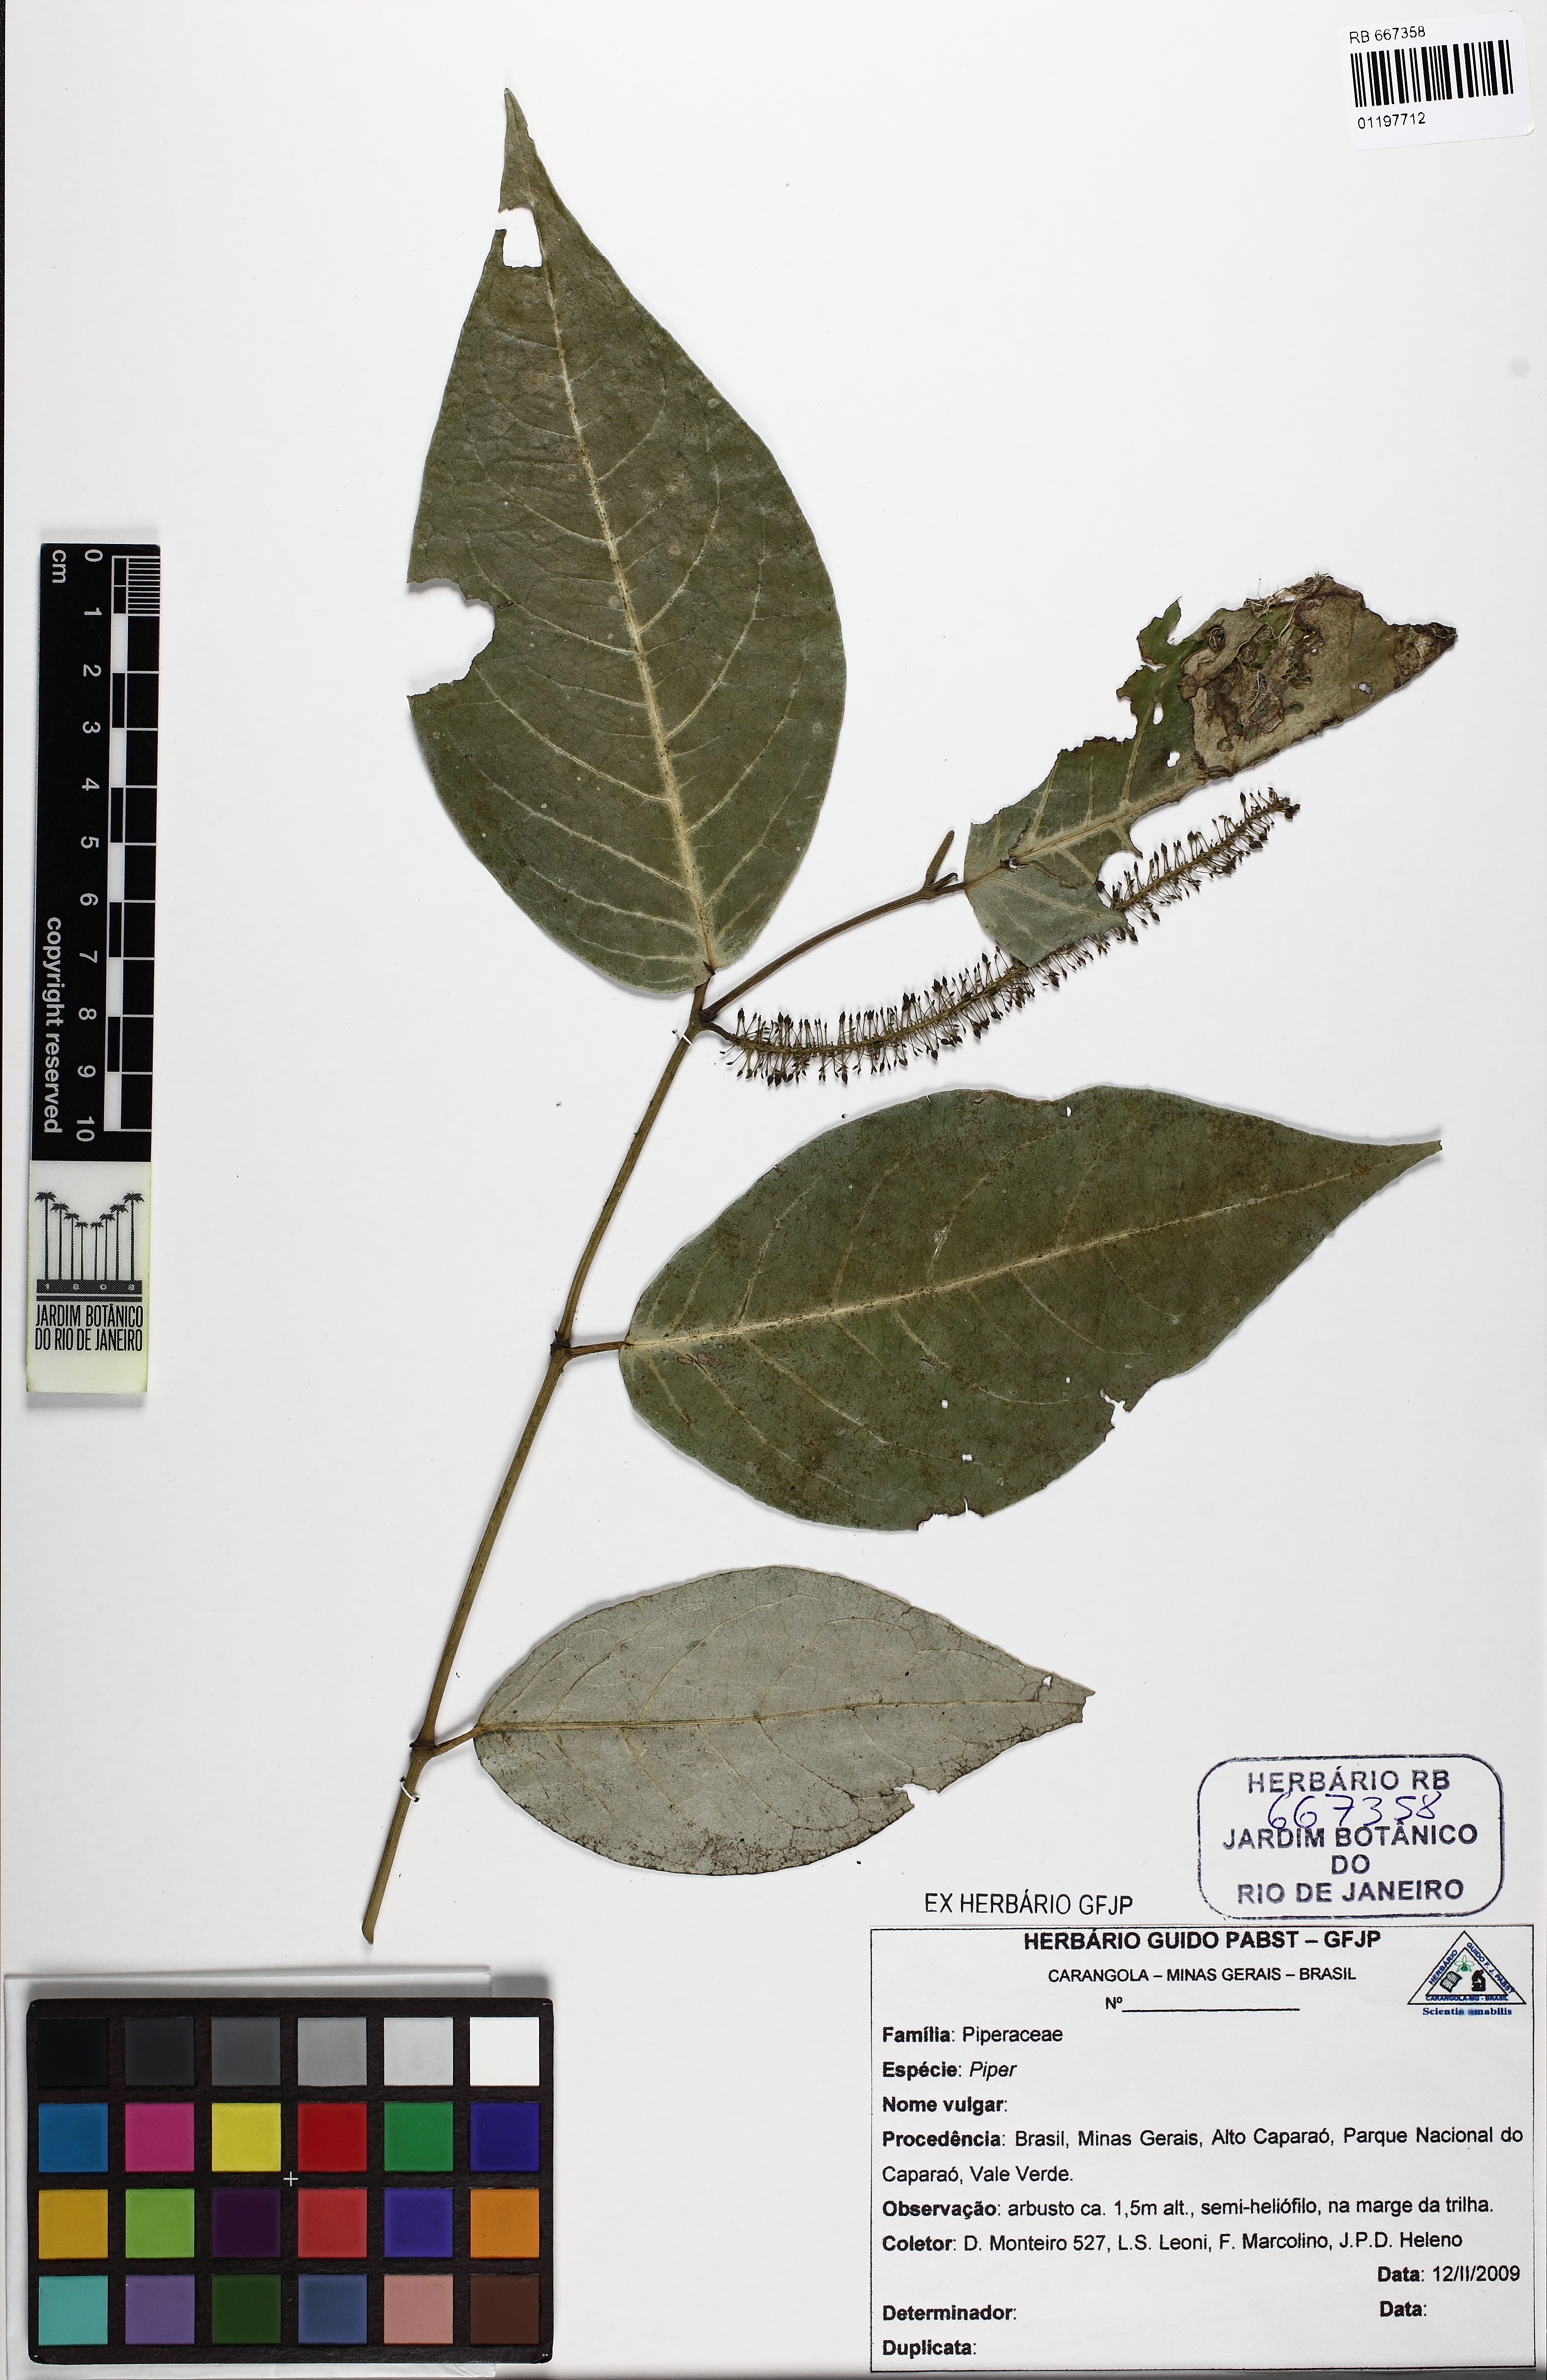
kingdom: Plantae
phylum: Tracheophyta
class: Magnoliopsida
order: Piperales
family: Piperaceae
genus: Piper
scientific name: Piper anisum
